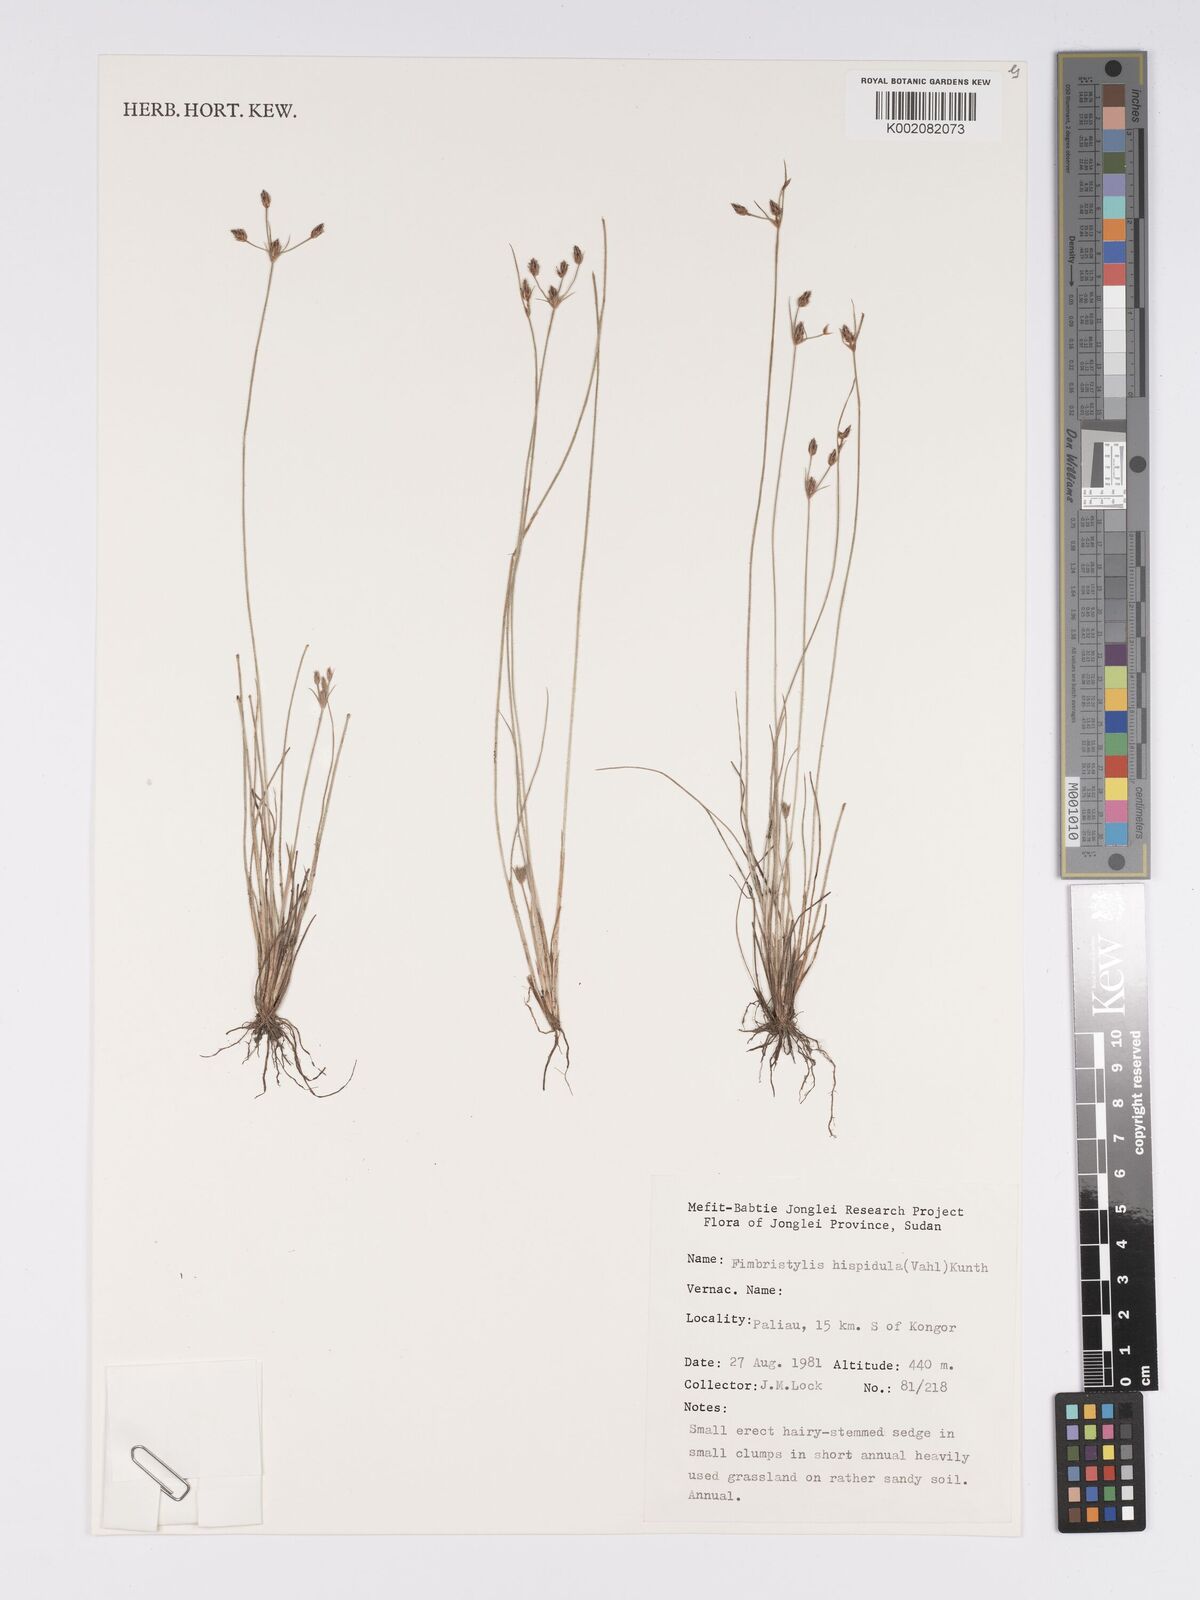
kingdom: Plantae
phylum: Tracheophyta
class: Liliopsida
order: Poales
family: Cyperaceae
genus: Bulbostylis
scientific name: Bulbostylis hispidula
